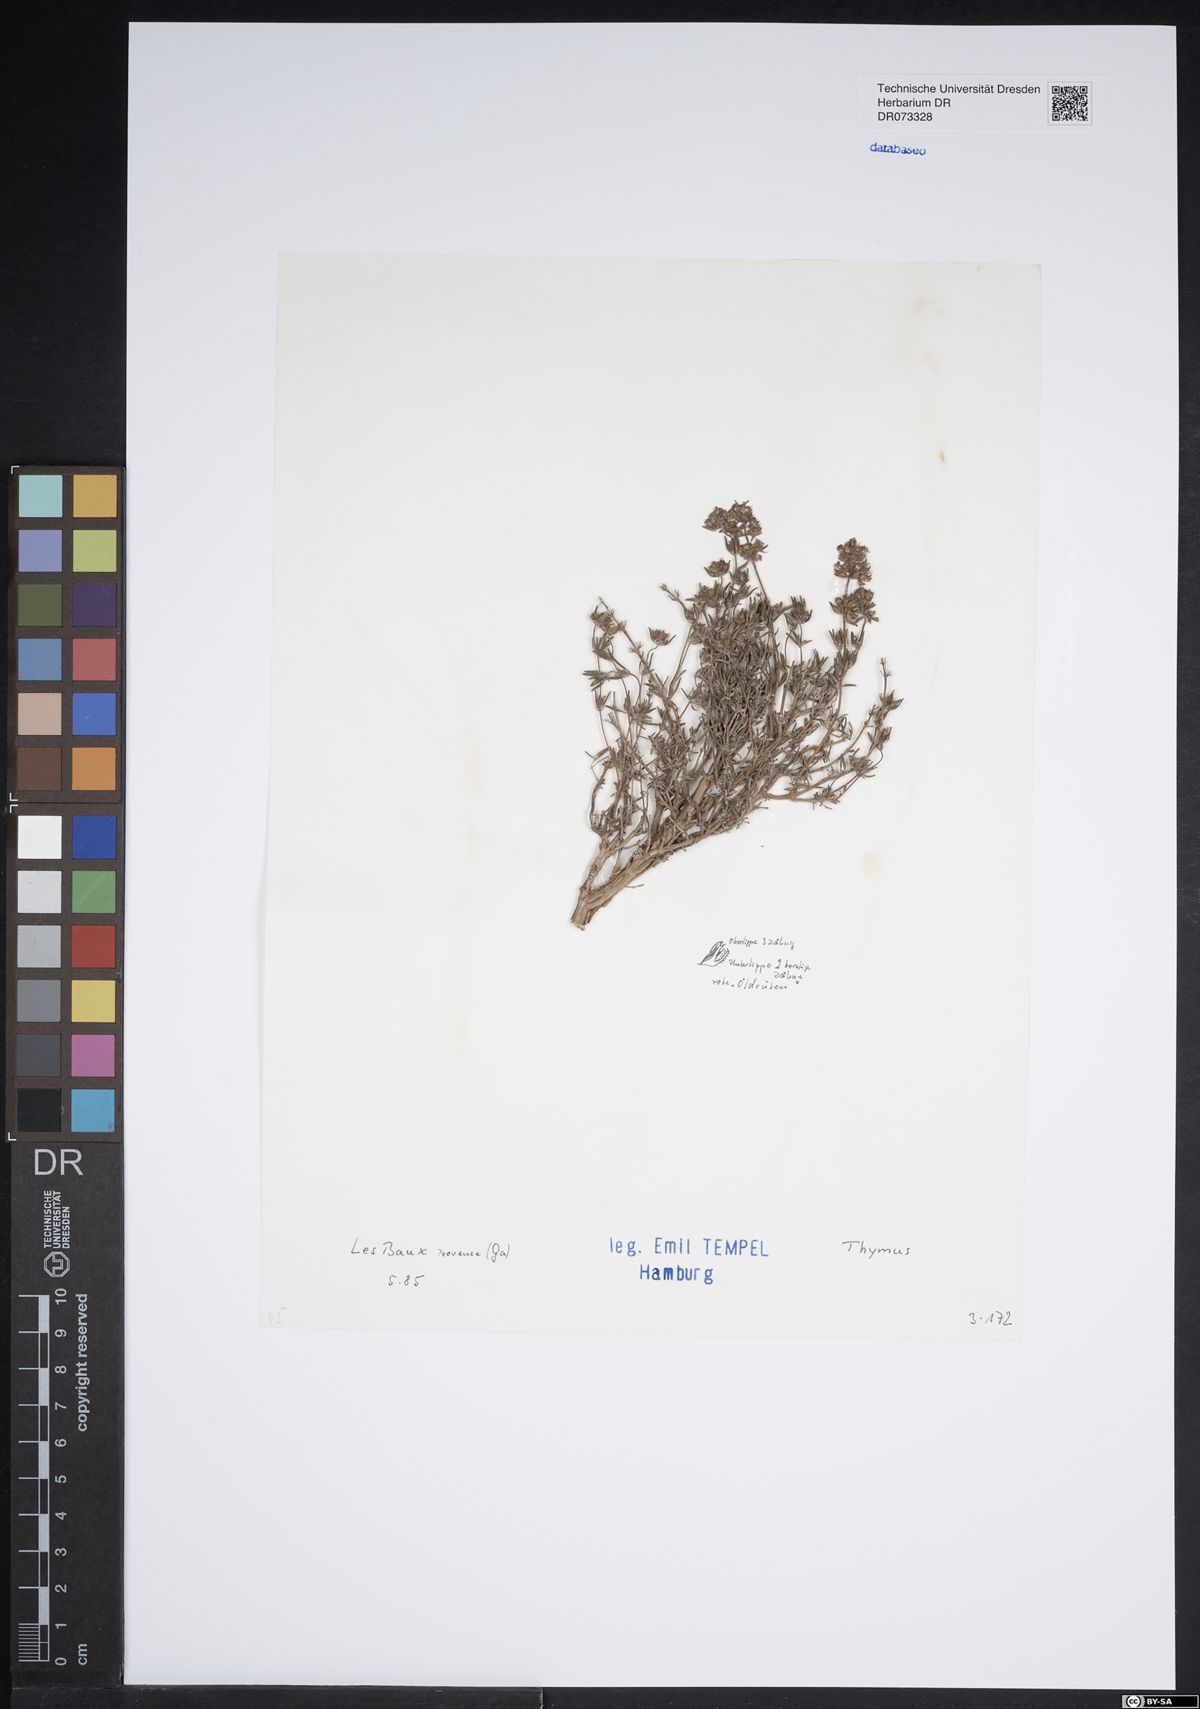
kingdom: Plantae
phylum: Tracheophyta
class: Magnoliopsida
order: Lamiales
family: Lamiaceae
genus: Thymus
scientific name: Thymus
